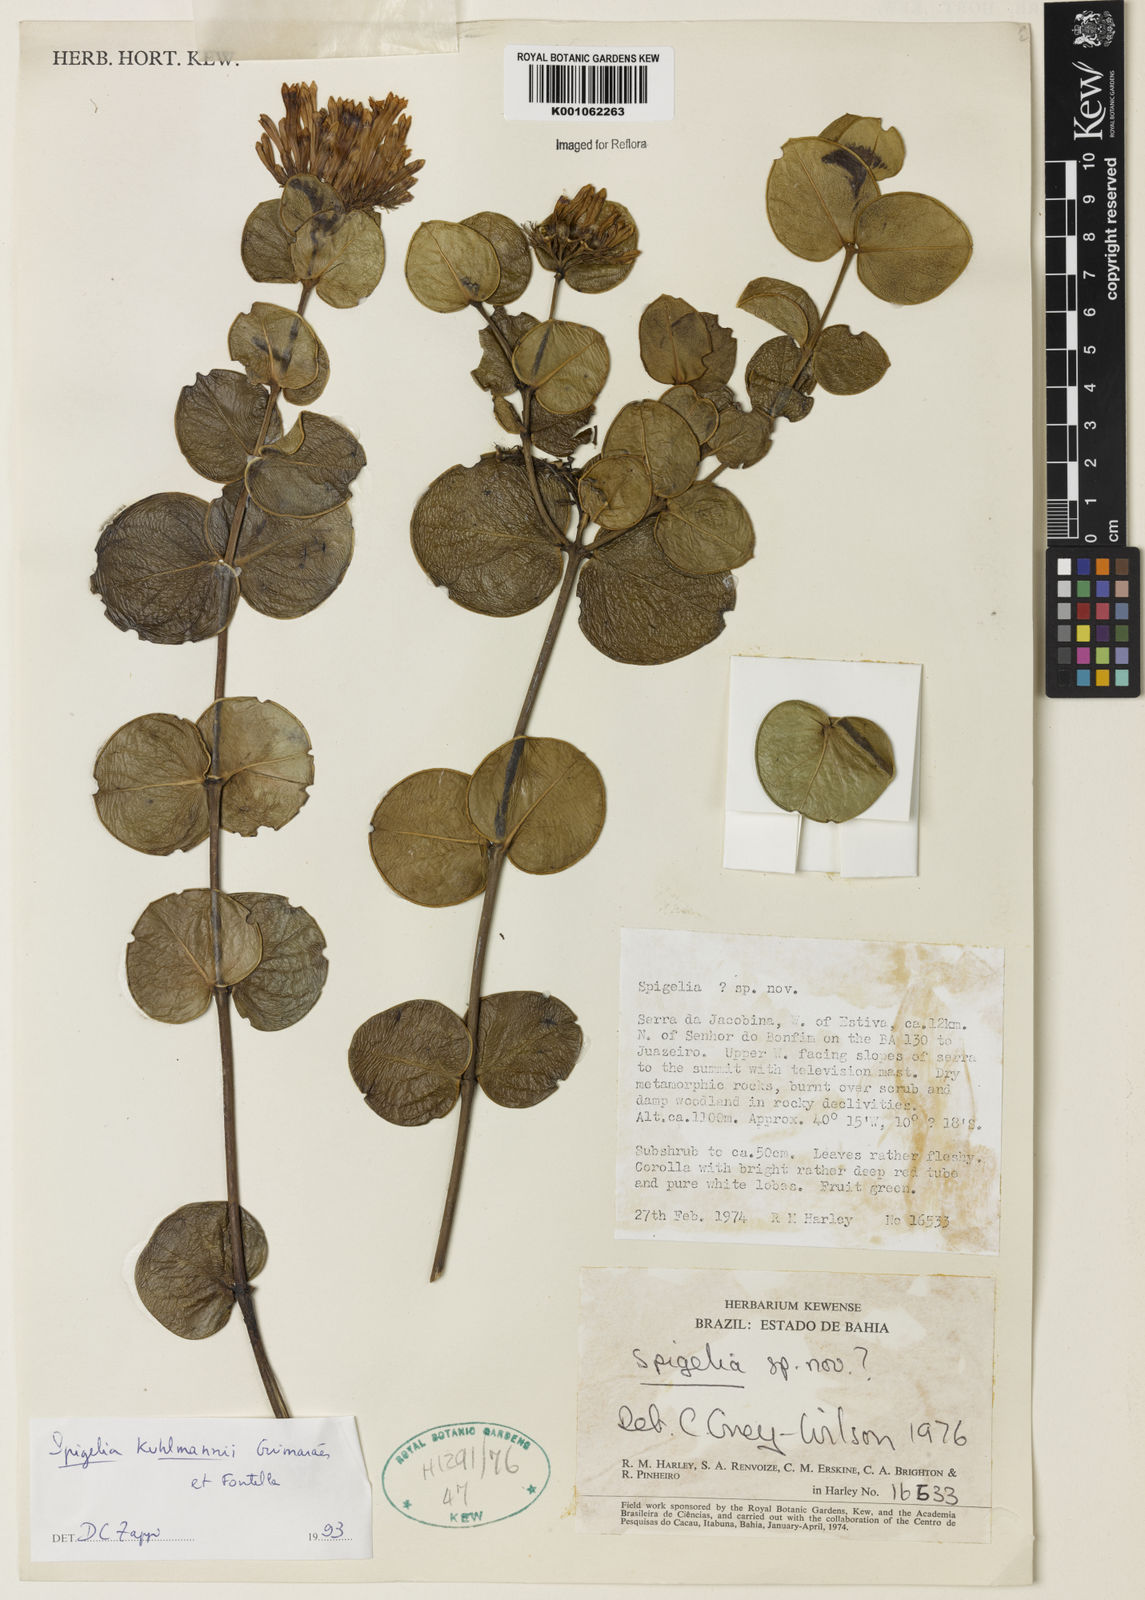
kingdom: Plantae
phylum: Tracheophyta
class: Magnoliopsida
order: Gentianales
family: Loganiaceae
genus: Spigelia
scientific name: Spigelia kuhlmannii
